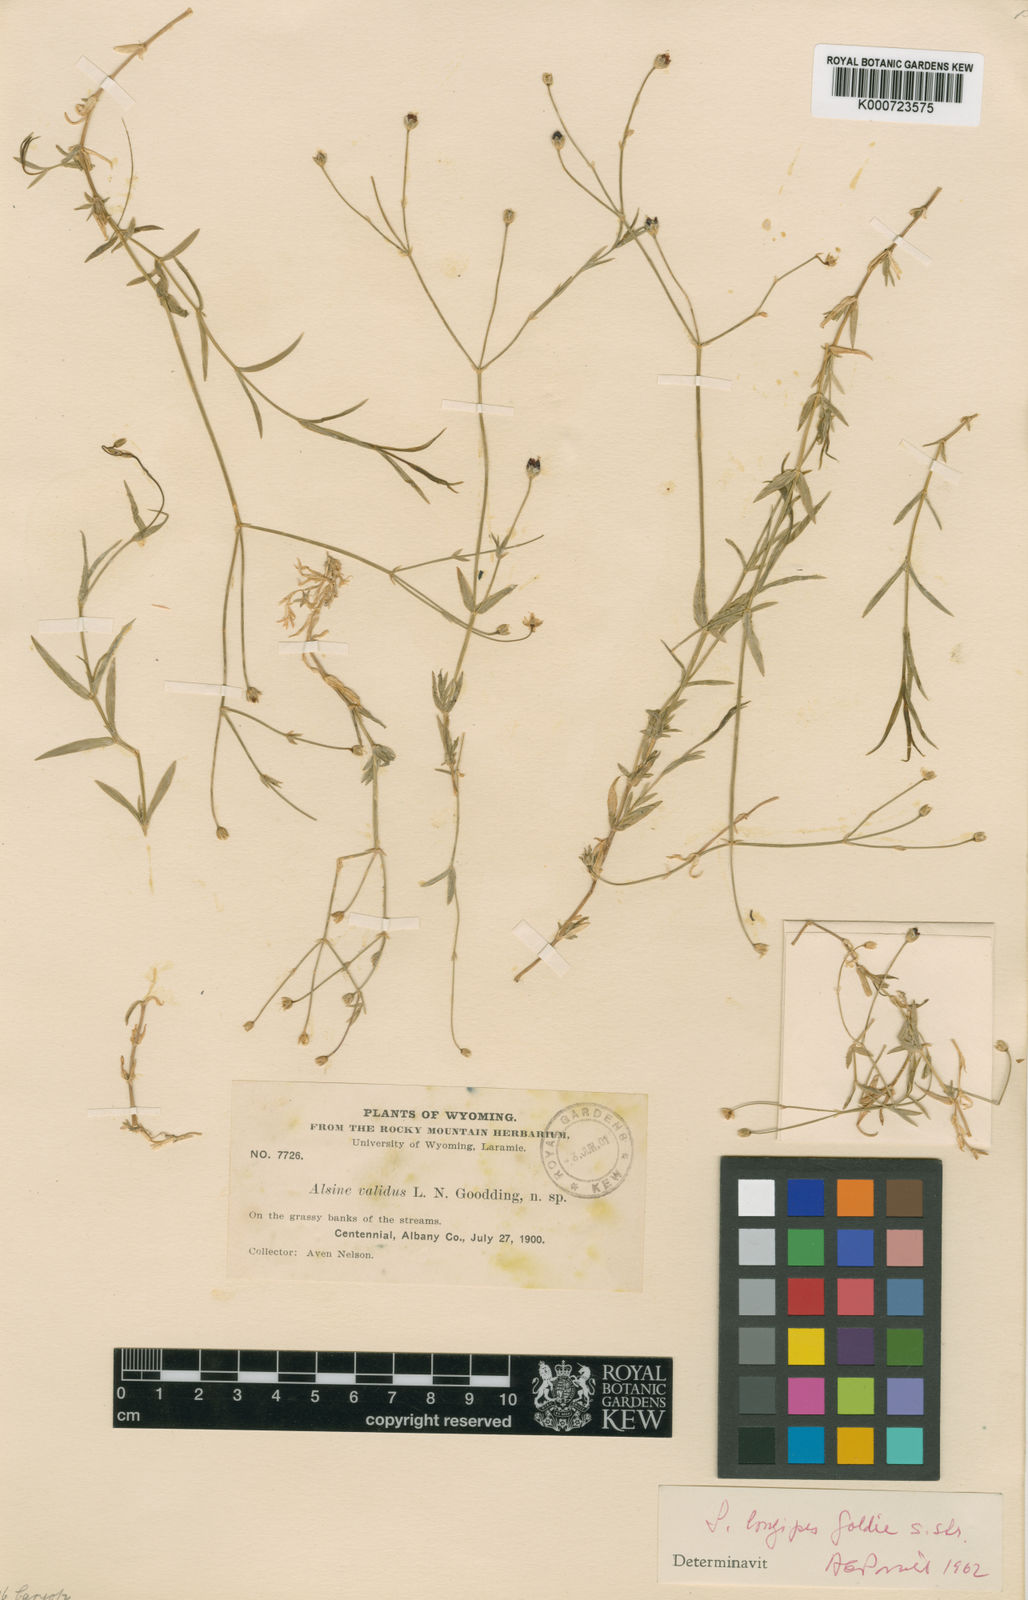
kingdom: Plantae
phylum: Tracheophyta
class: Magnoliopsida
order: Caryophyllales
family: Caryophyllaceae
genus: Stellaria
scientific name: Stellaria longipes
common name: Goldie's starwort
